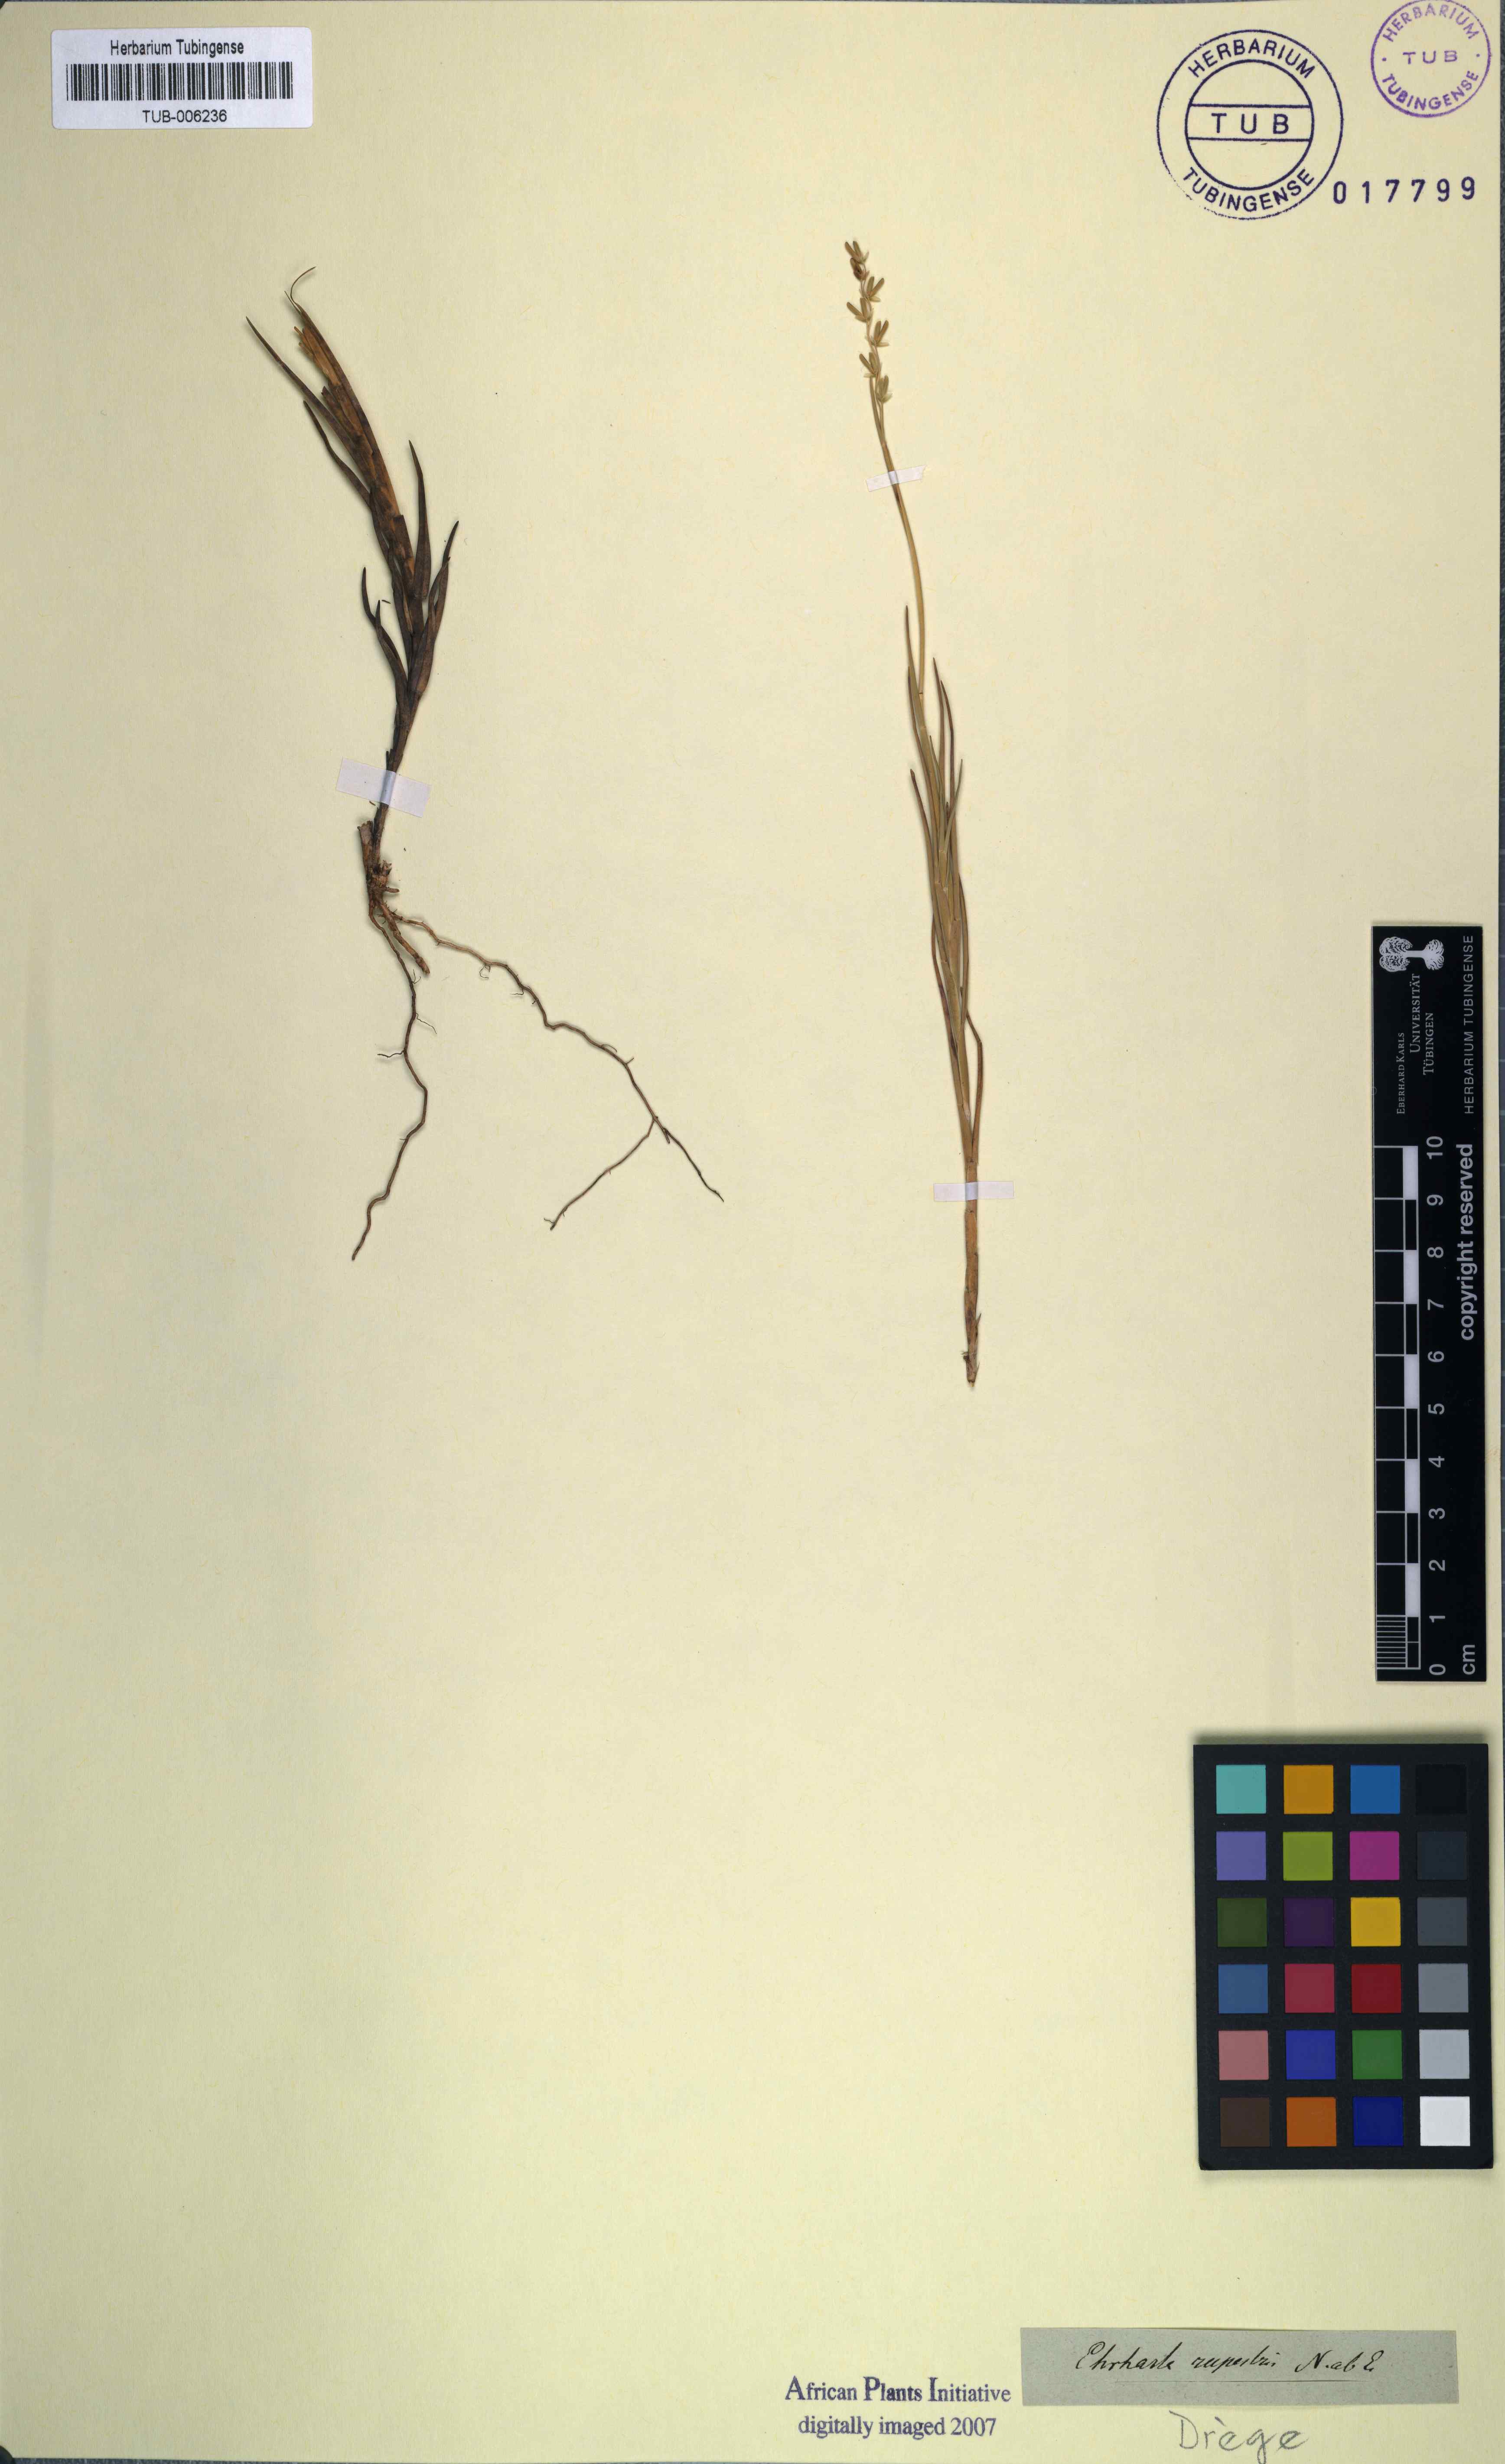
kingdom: Plantae
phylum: Tracheophyta
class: Liliopsida
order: Poales
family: Poaceae
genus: Ehrharta
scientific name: Ehrharta rupestris
